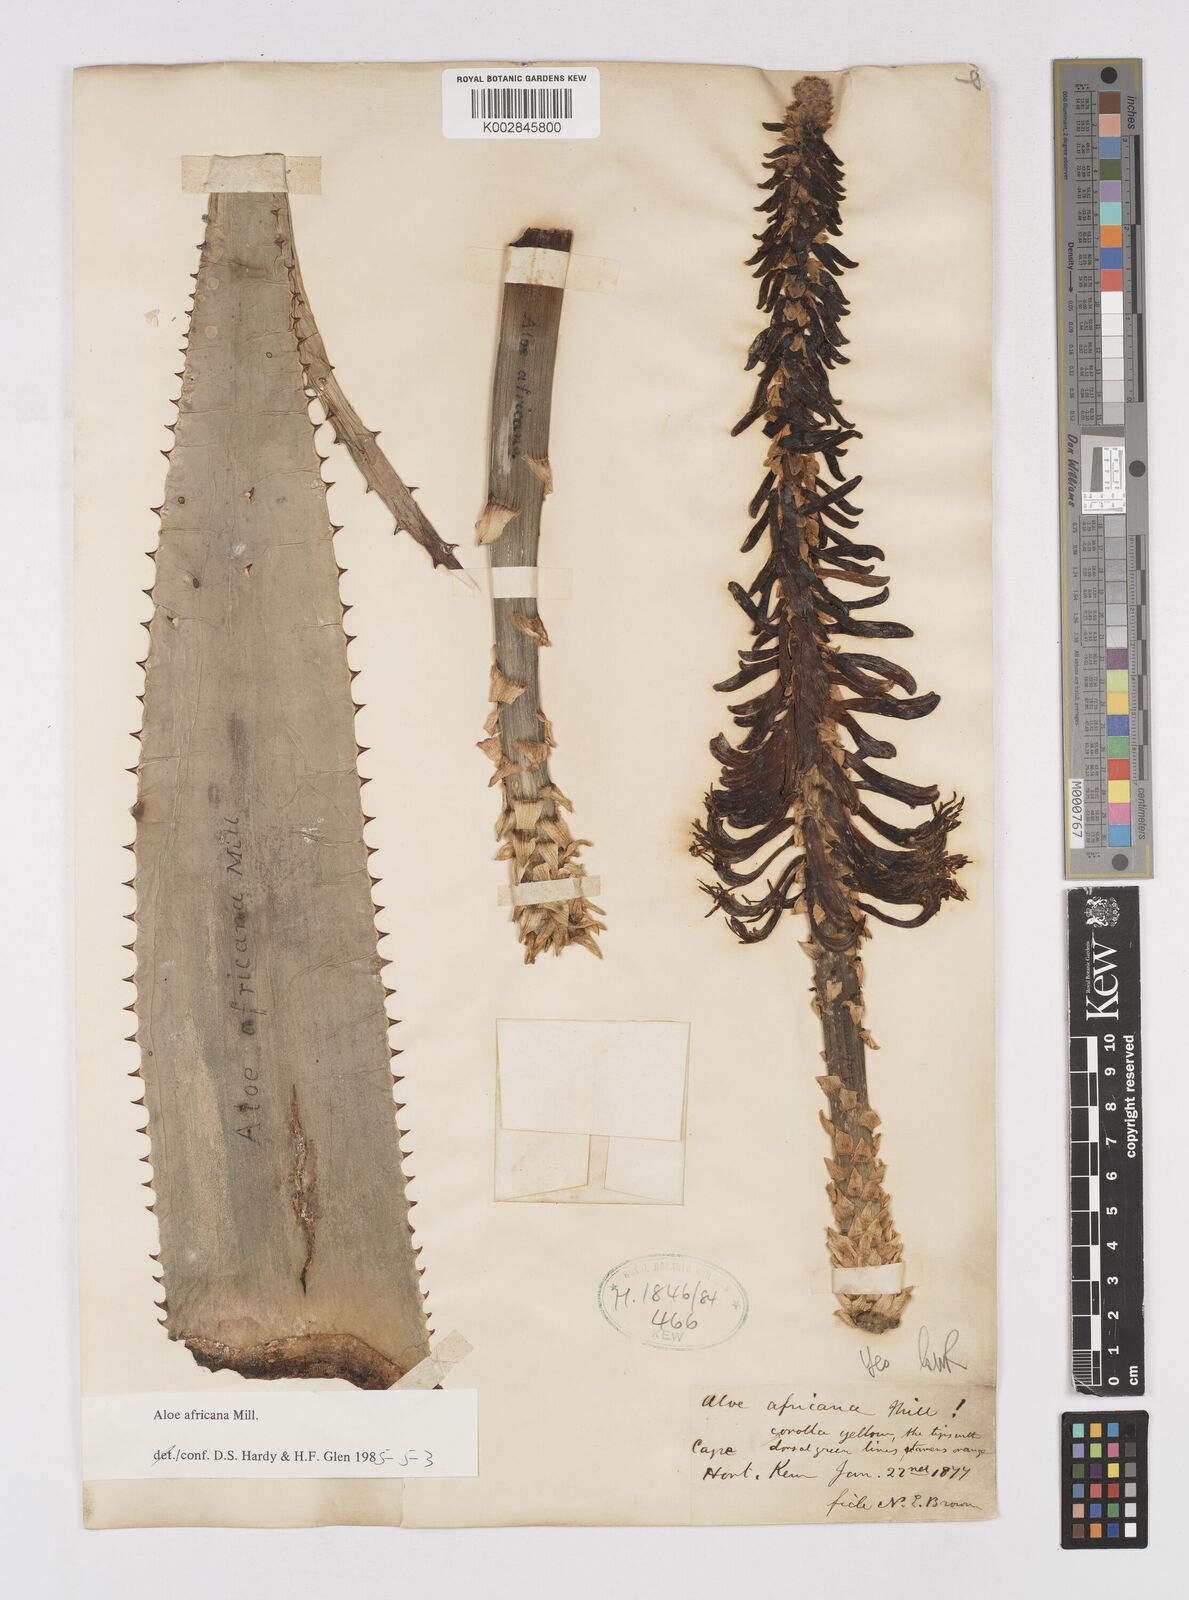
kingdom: Plantae
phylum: Tracheophyta
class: Liliopsida
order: Asparagales
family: Asphodelaceae
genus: Aloe
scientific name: Aloe africana
